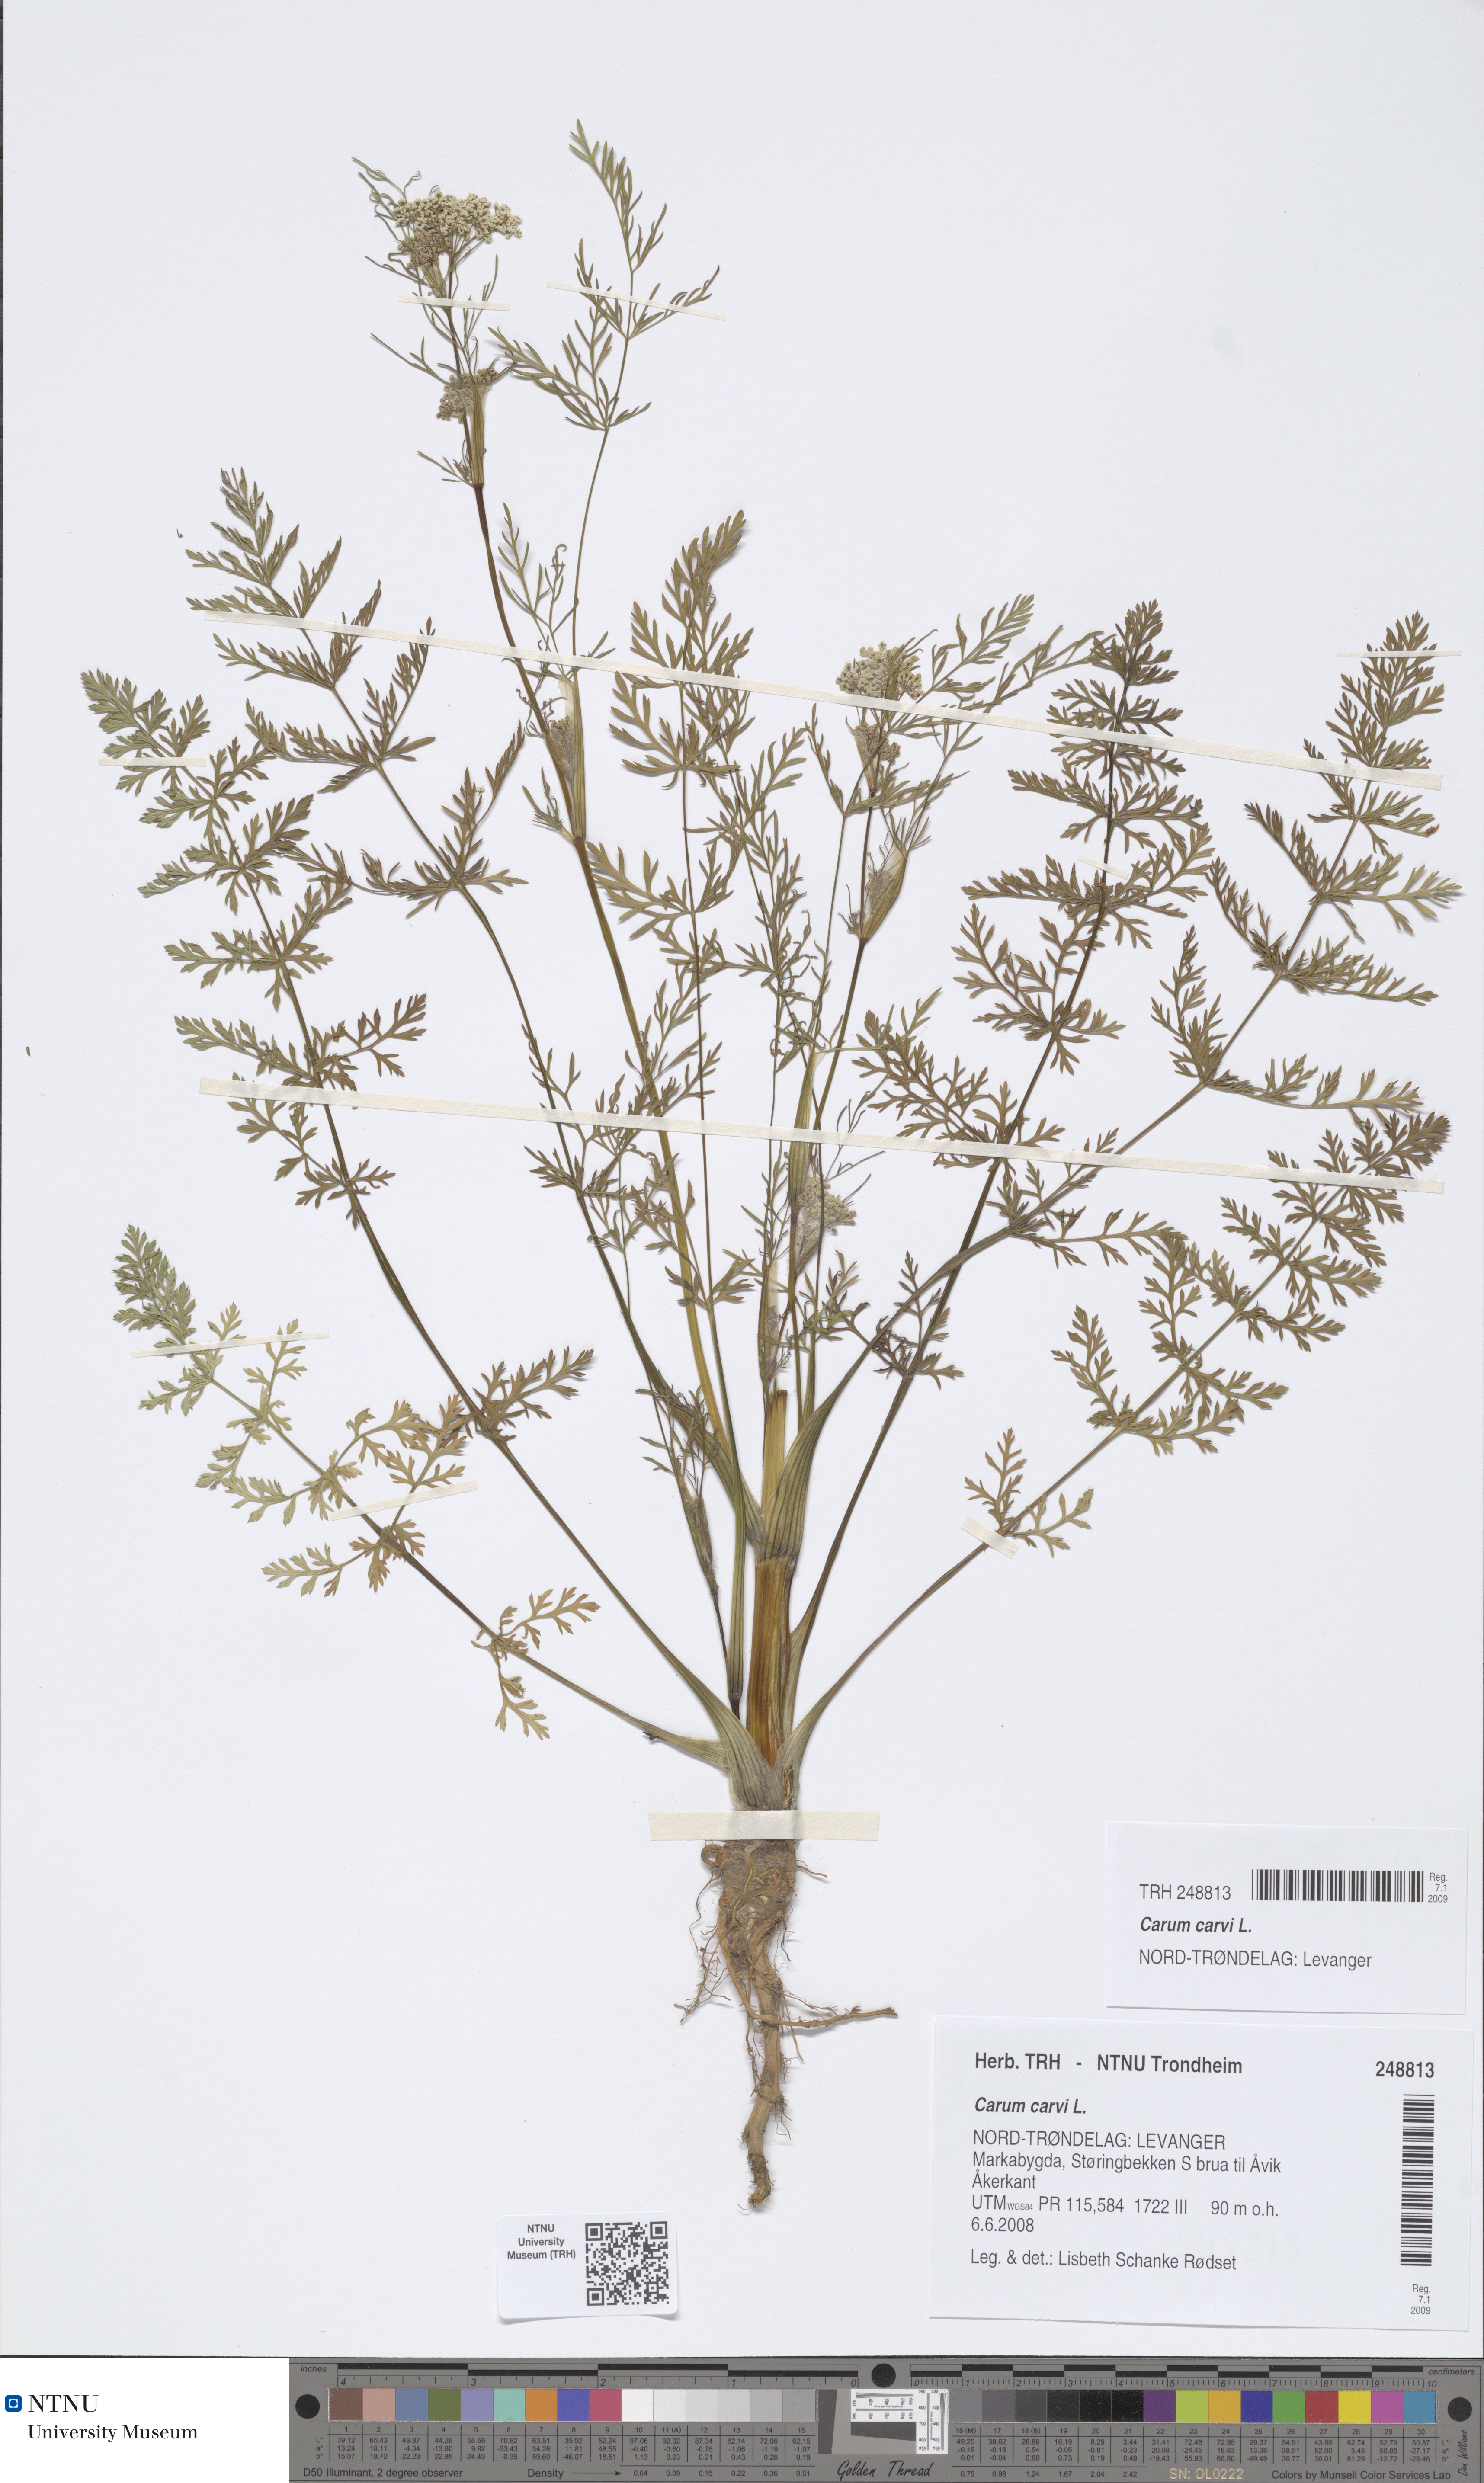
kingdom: Plantae
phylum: Tracheophyta
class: Magnoliopsida
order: Apiales
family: Apiaceae
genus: Carum
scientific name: Carum carvi
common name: Caraway
